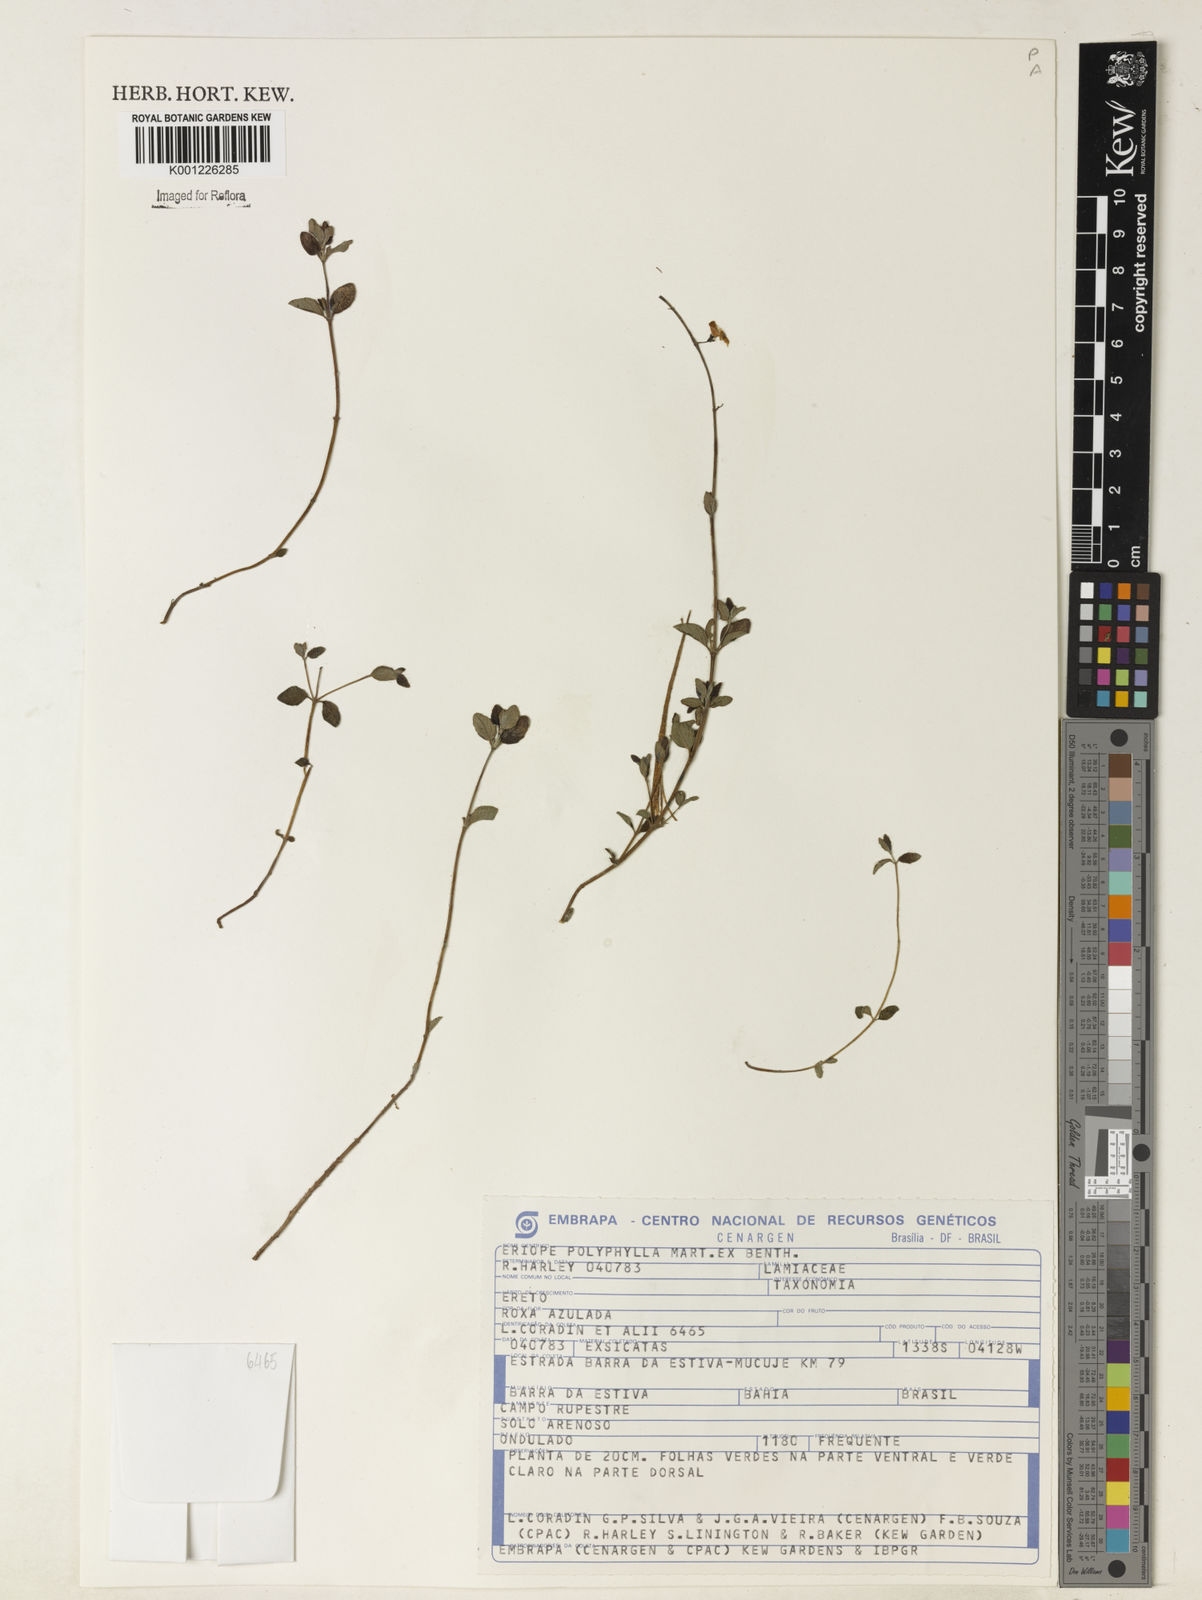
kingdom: Plantae
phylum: Tracheophyta
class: Magnoliopsida
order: Lamiales
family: Lamiaceae
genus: Eriope
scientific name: Eriope polyphylla
